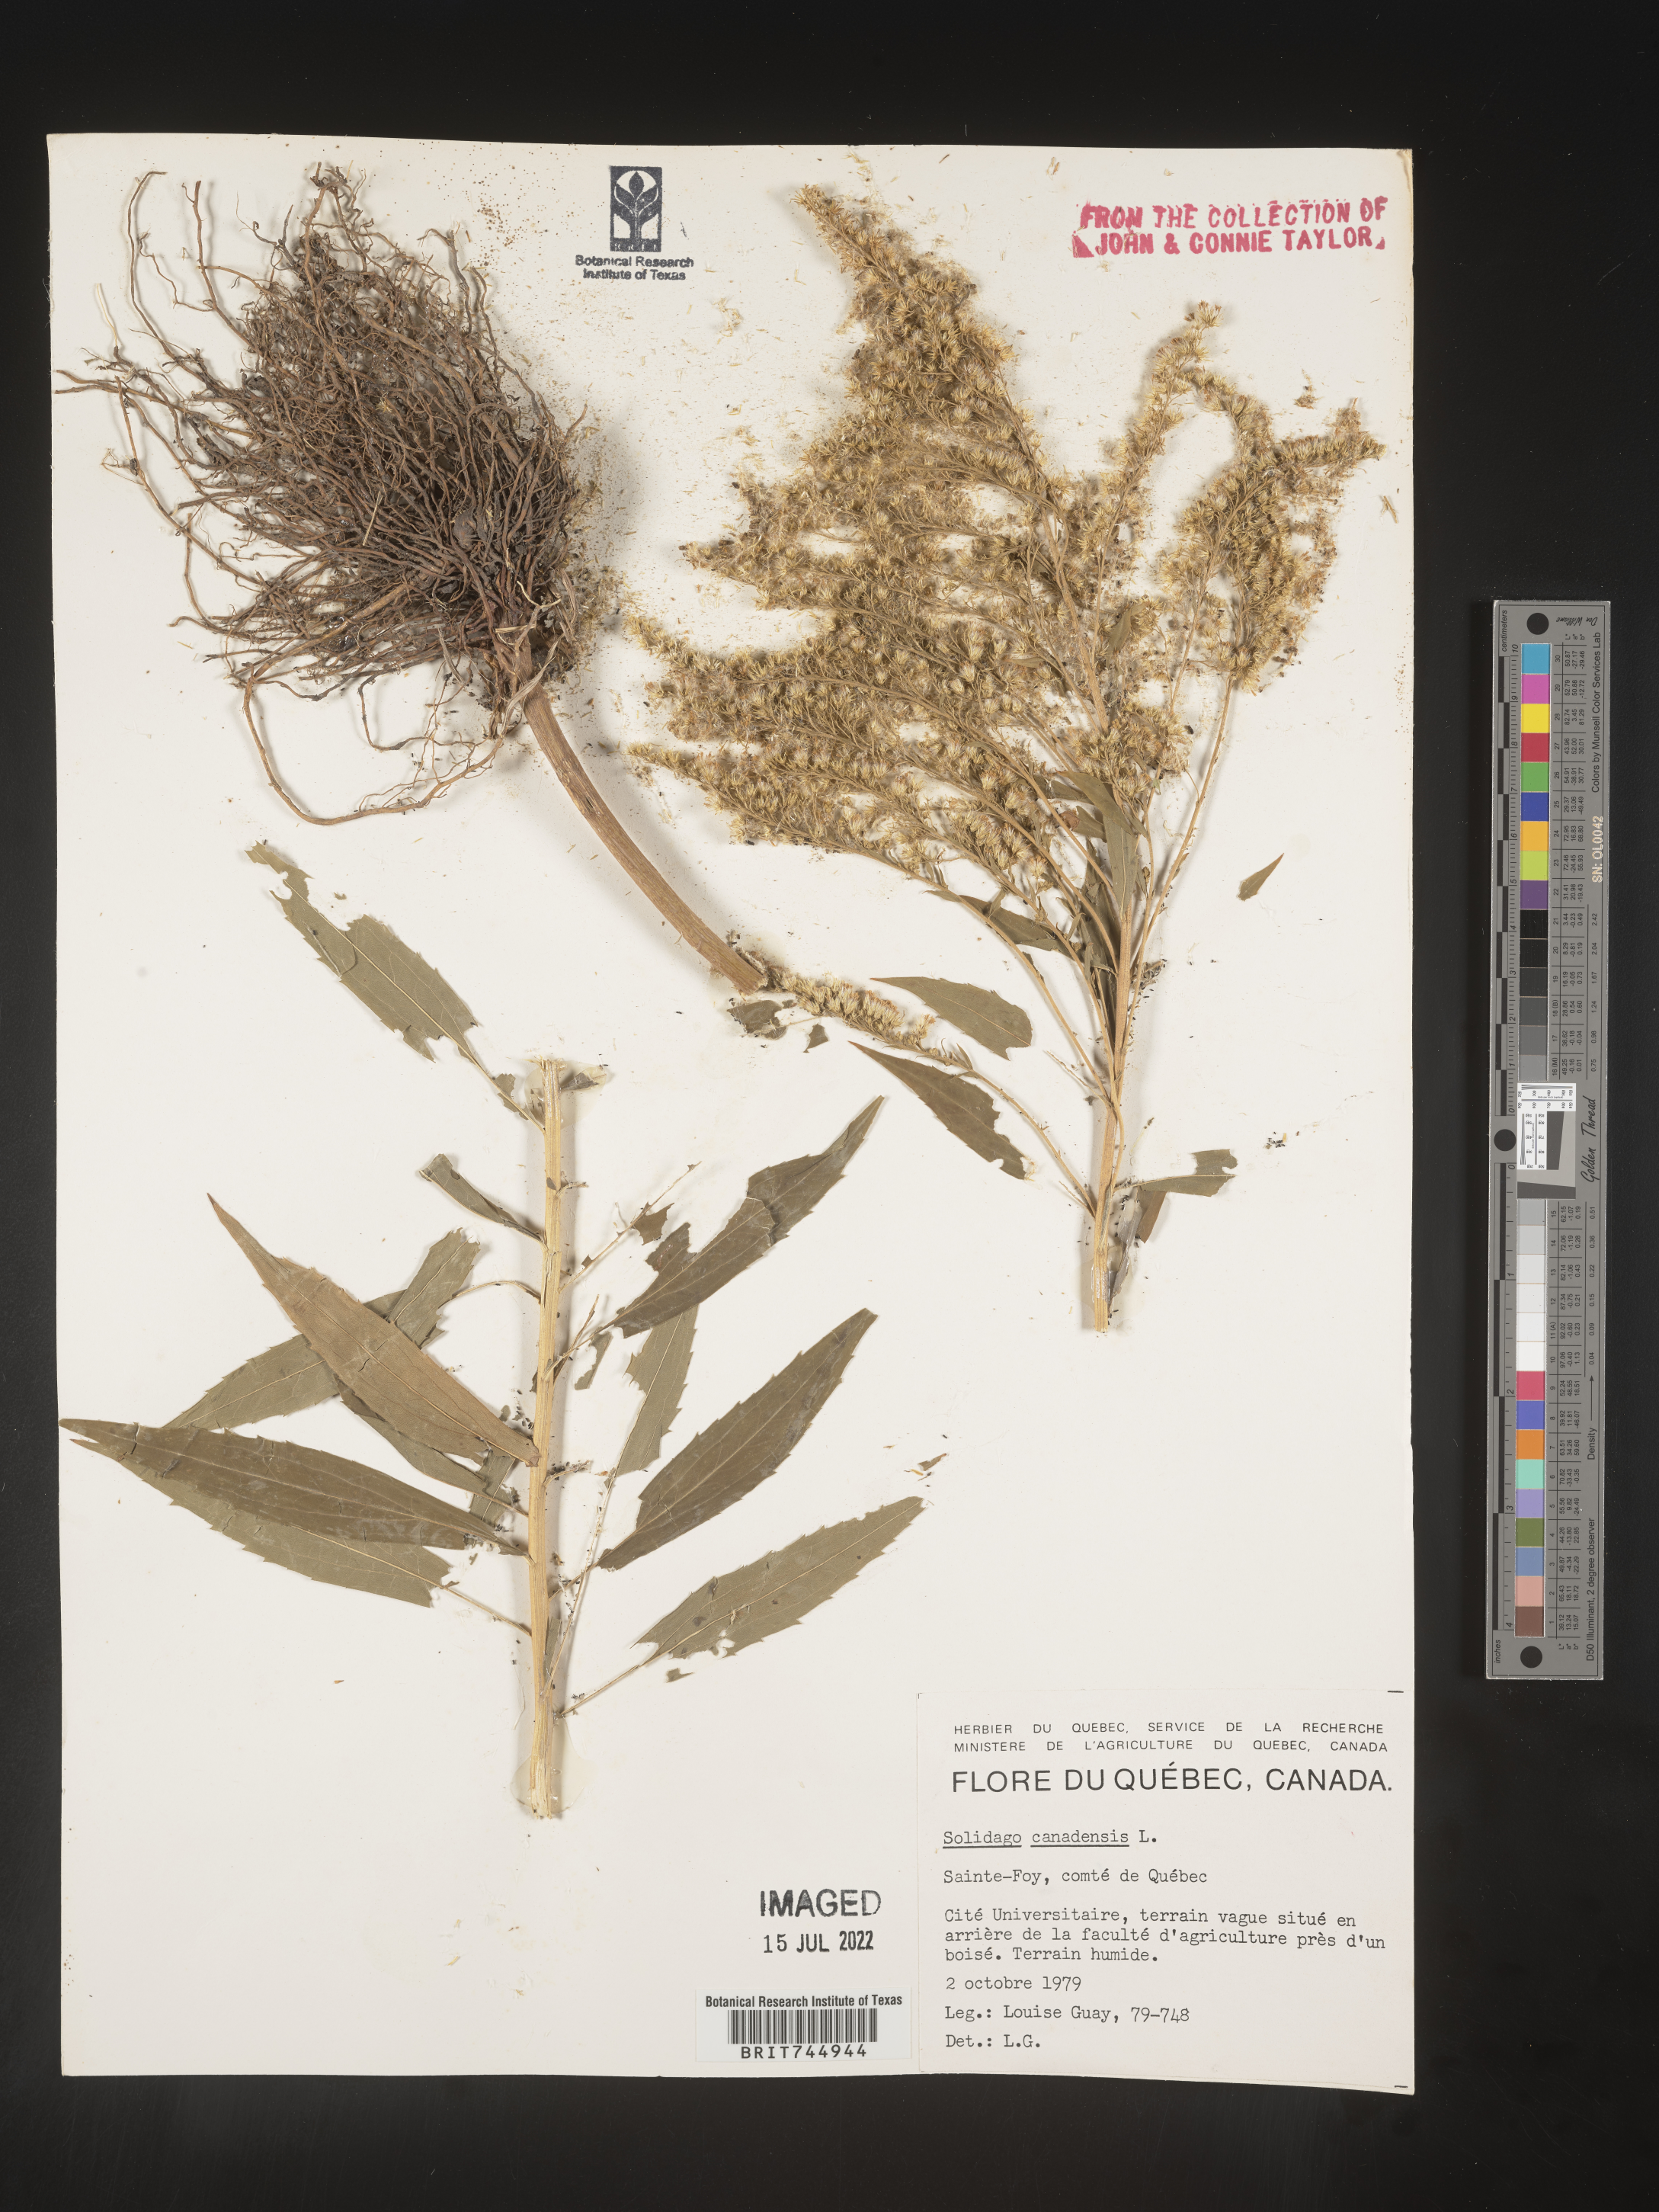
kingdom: Plantae
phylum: Tracheophyta
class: Magnoliopsida
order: Asterales
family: Asteraceae
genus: Solidago
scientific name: Solidago canadensis
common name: Canada goldenrod
